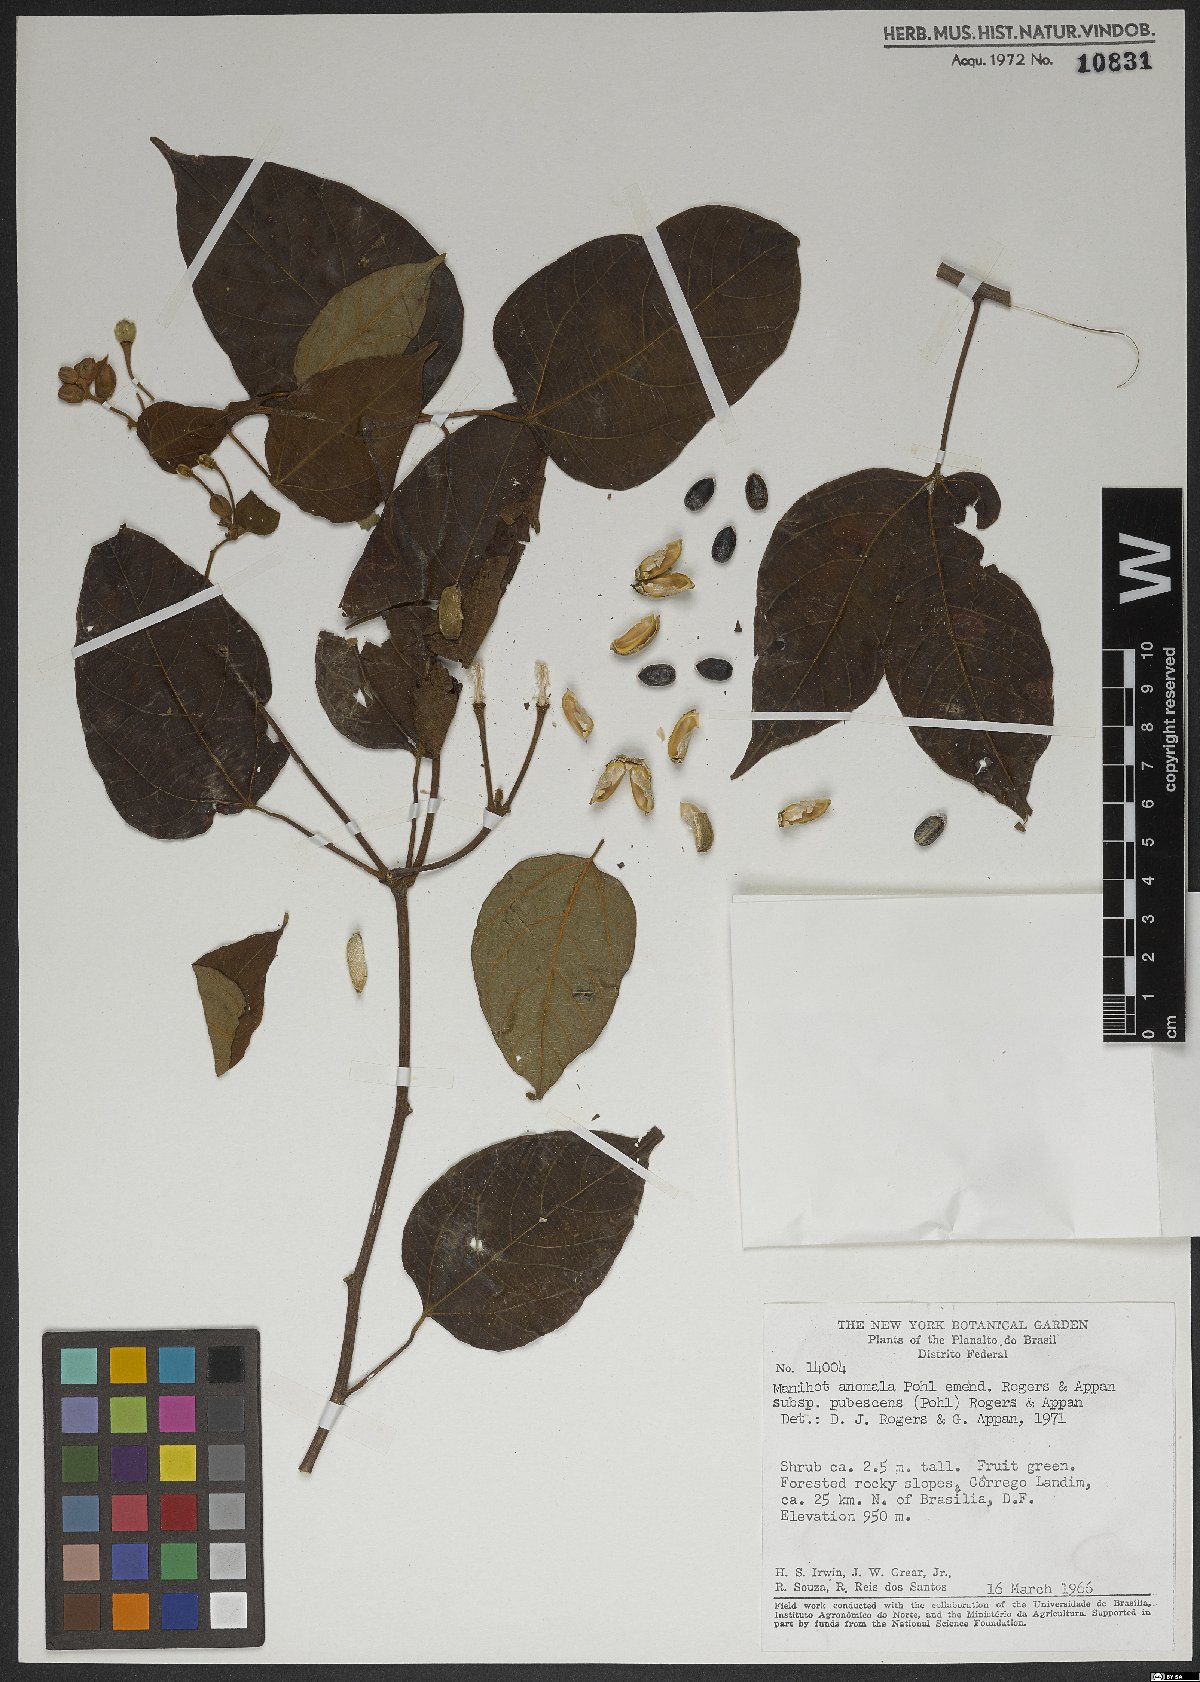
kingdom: Plantae
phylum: Tracheophyta
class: Magnoliopsida
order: Malpighiales
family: Euphorbiaceae
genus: Manihot
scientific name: Manihot anomala
